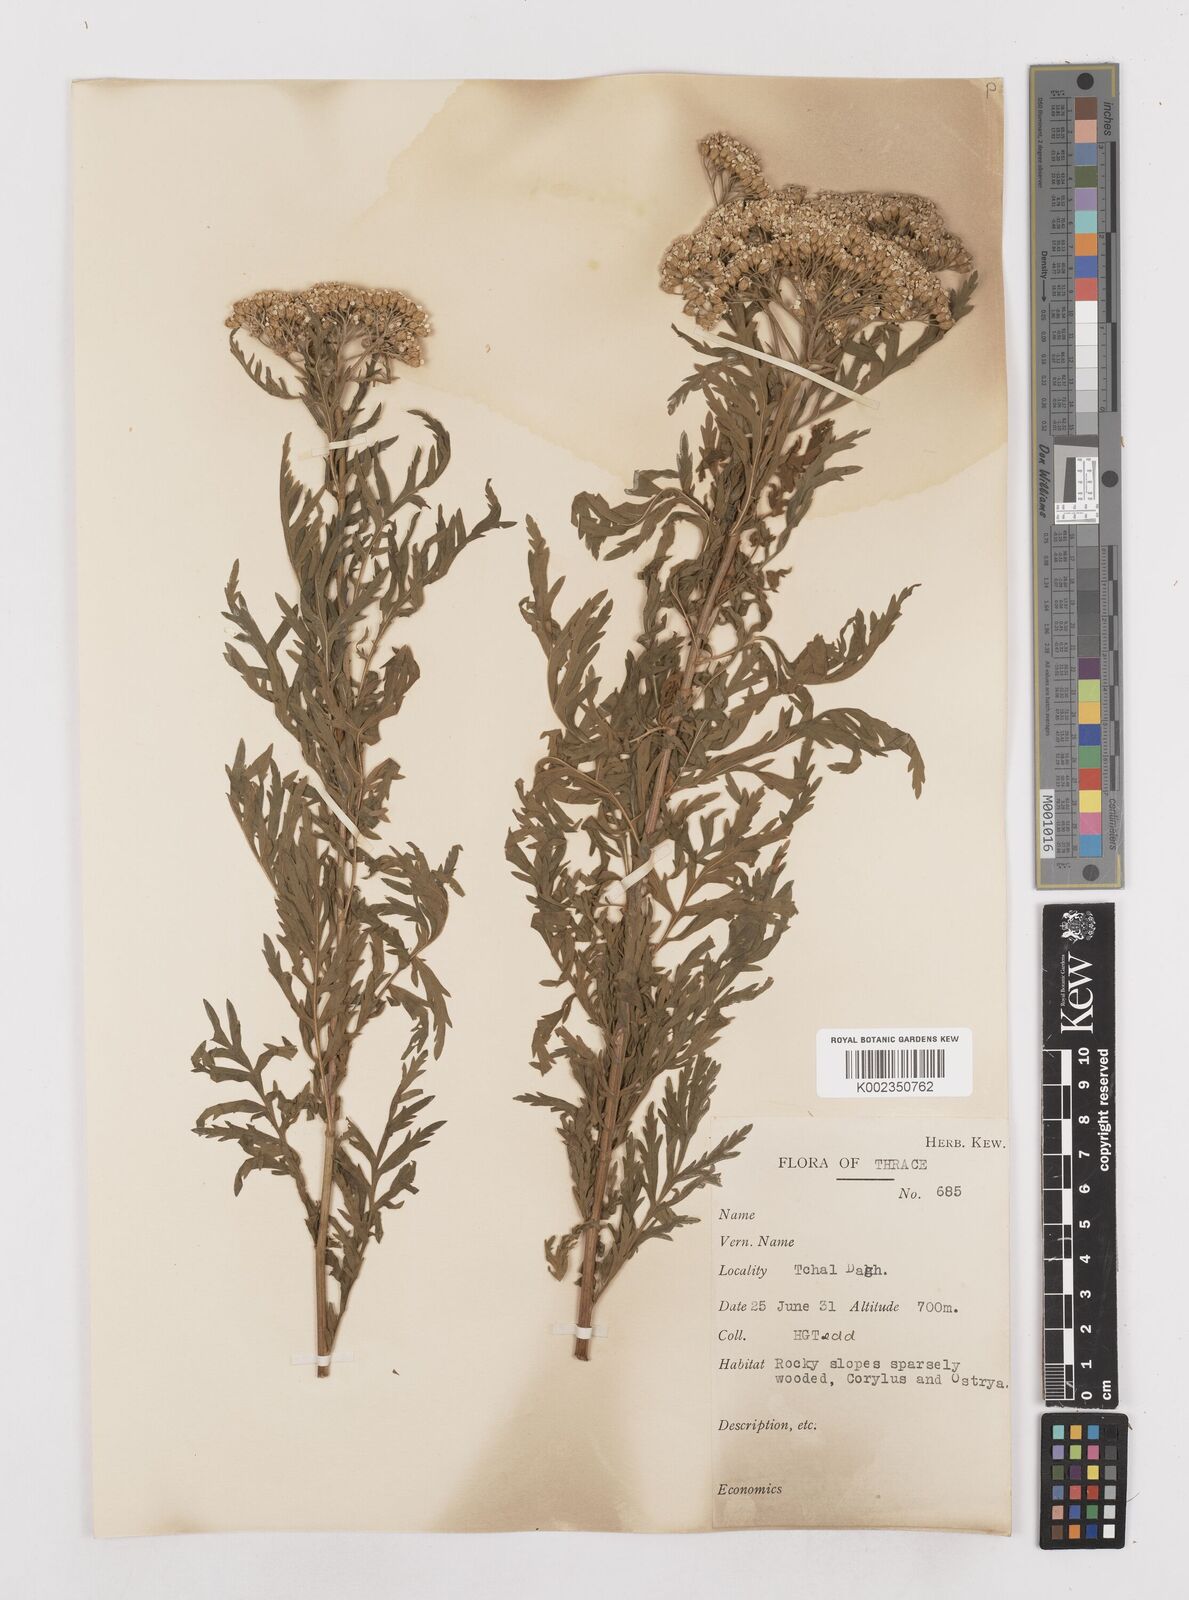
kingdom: Plantae
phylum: Tracheophyta
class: Magnoliopsida
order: Asterales
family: Asteraceae
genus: Achillea
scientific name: Achillea grandifolia
